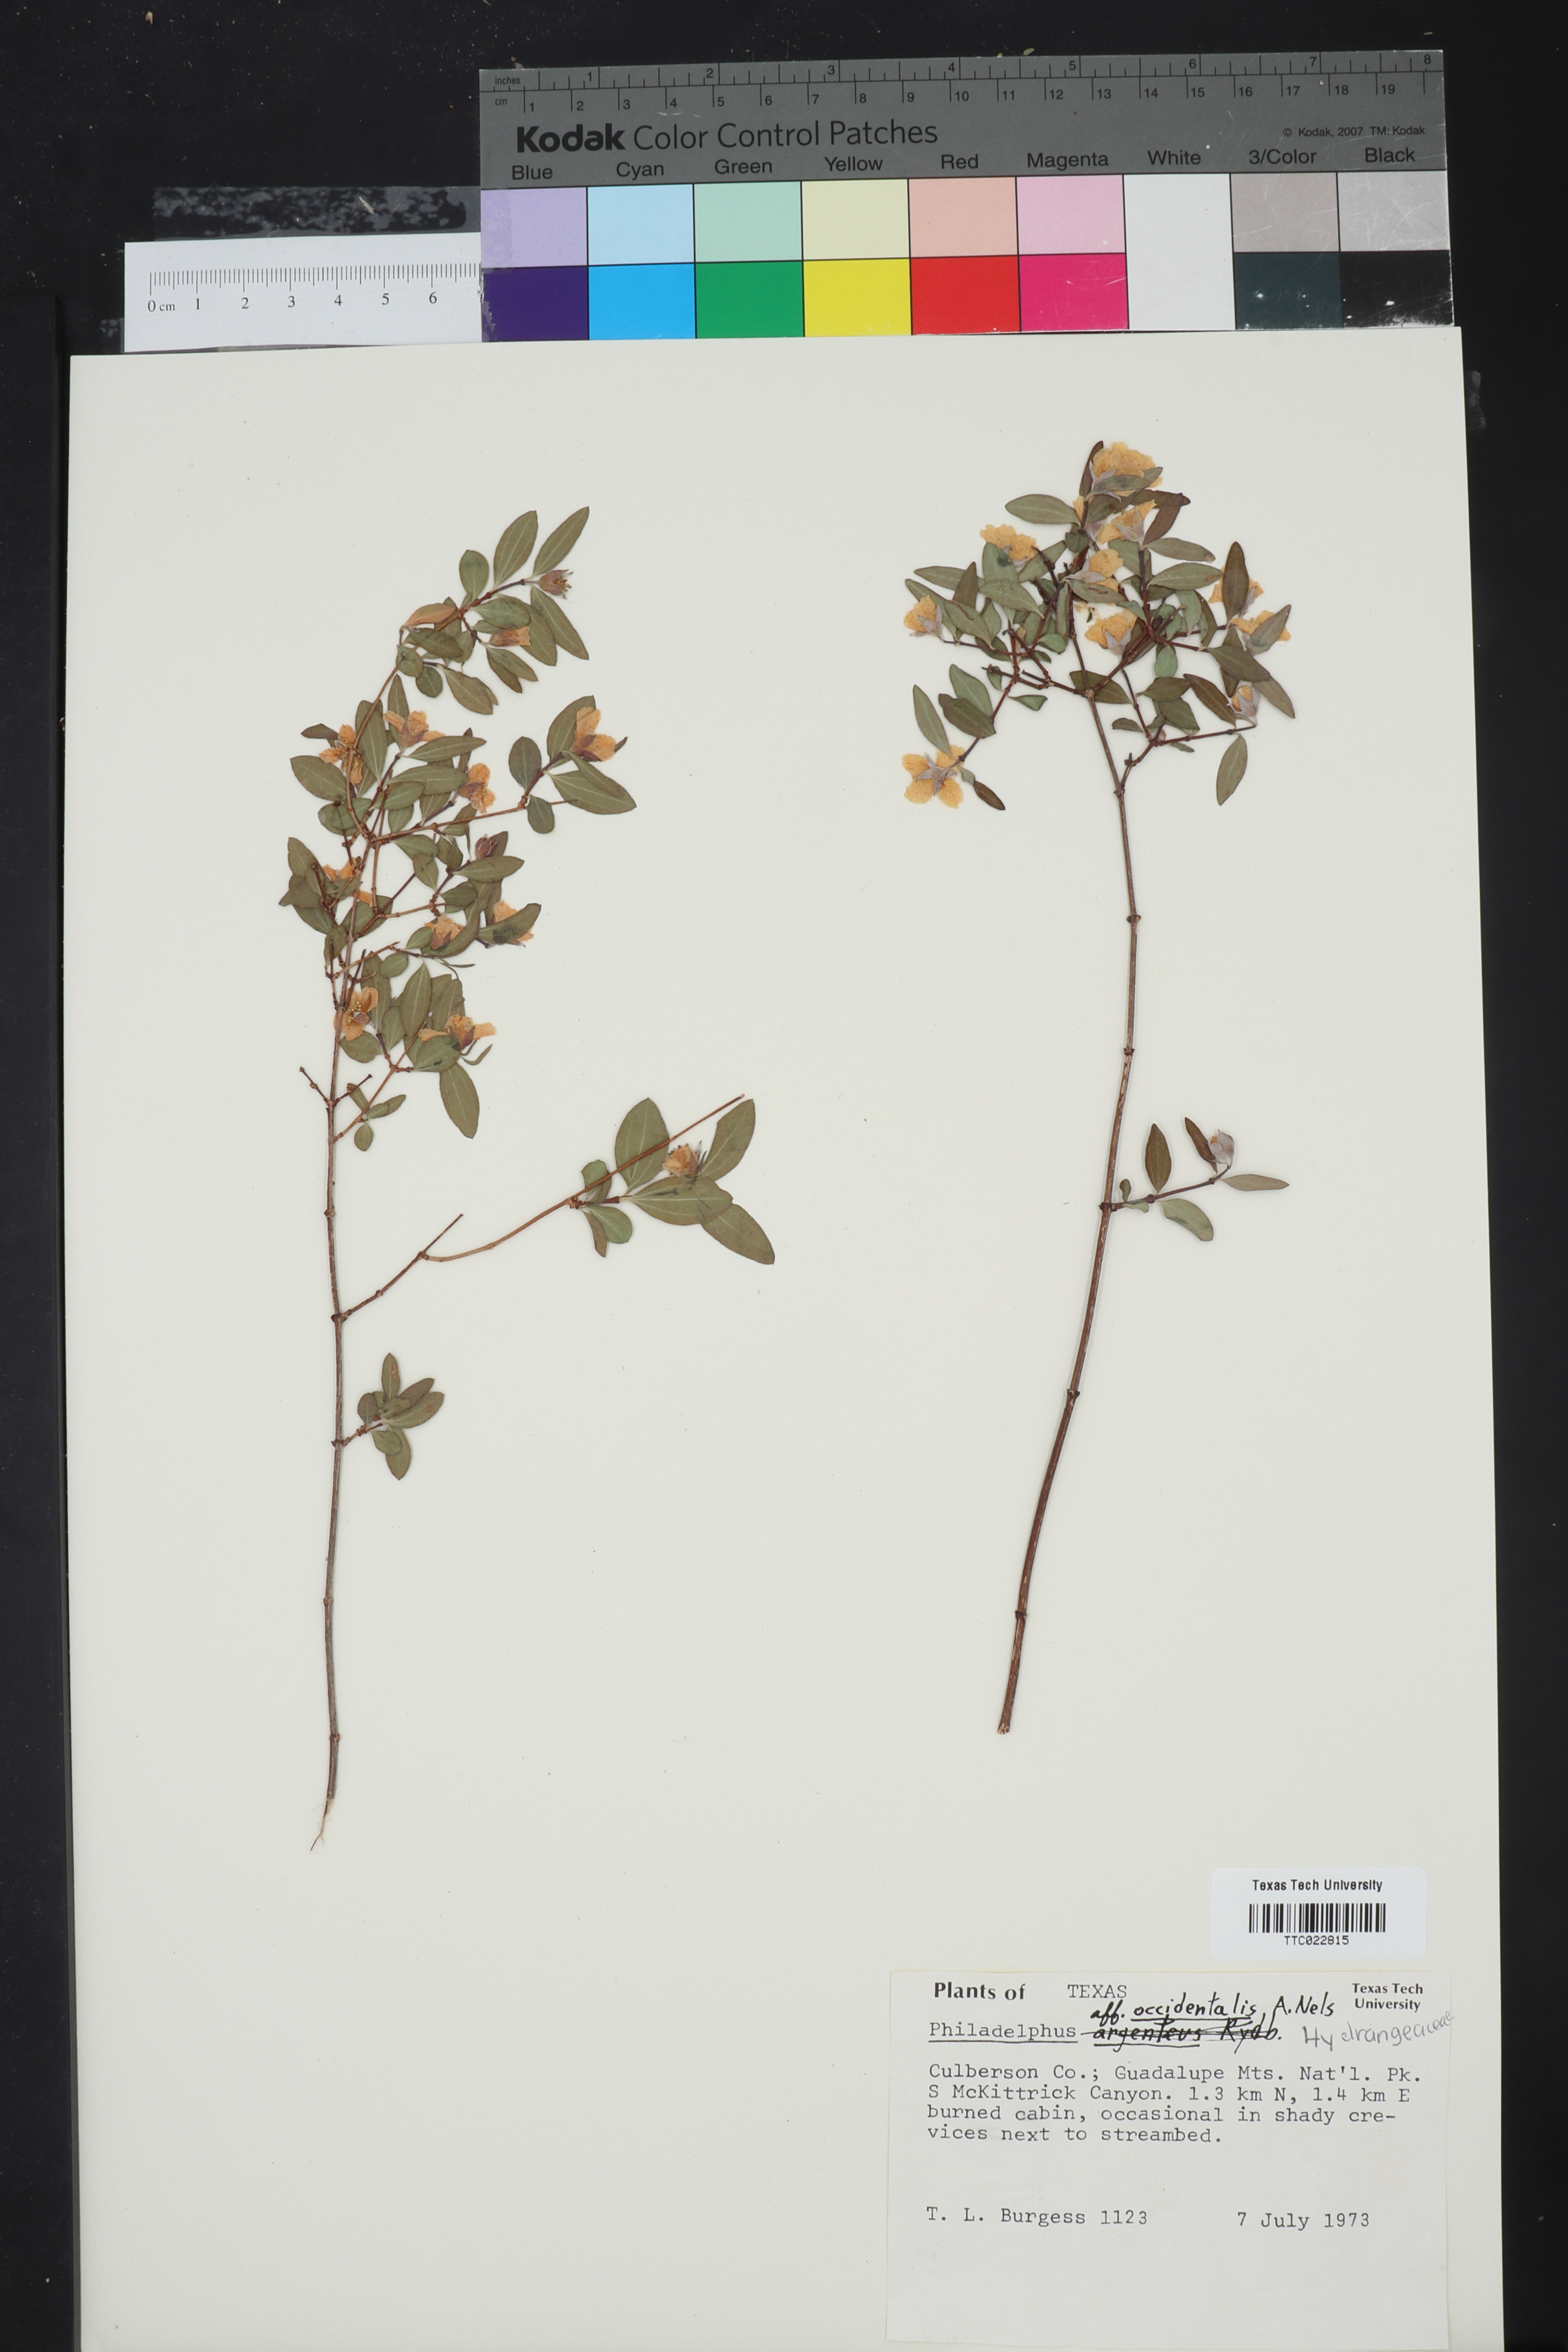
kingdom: Plantae
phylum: Tracheophyta
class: Magnoliopsida
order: Cornales
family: Hydrangeaceae
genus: Philadelphus
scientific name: Philadelphus microphyllus
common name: Desert mock orange
